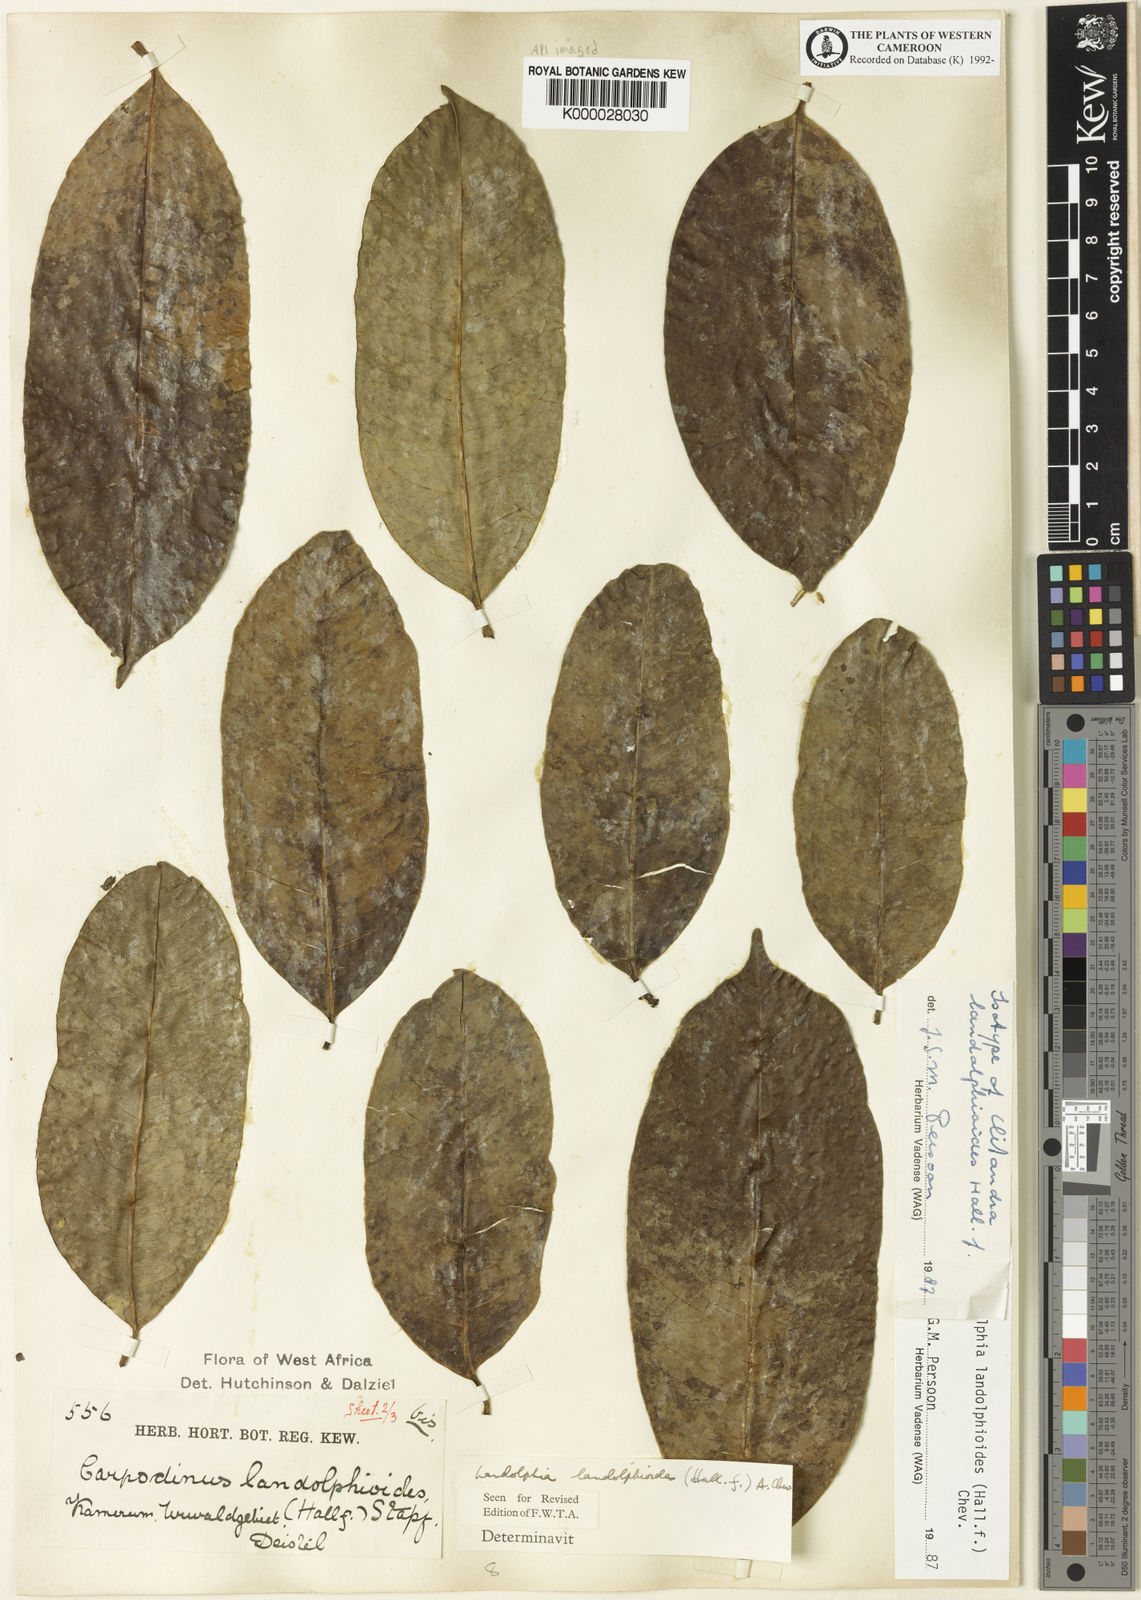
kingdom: Plantae
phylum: Tracheophyta
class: Magnoliopsida
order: Gentianales
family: Apocynaceae
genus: Landolphia
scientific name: Landolphia landolphioides
